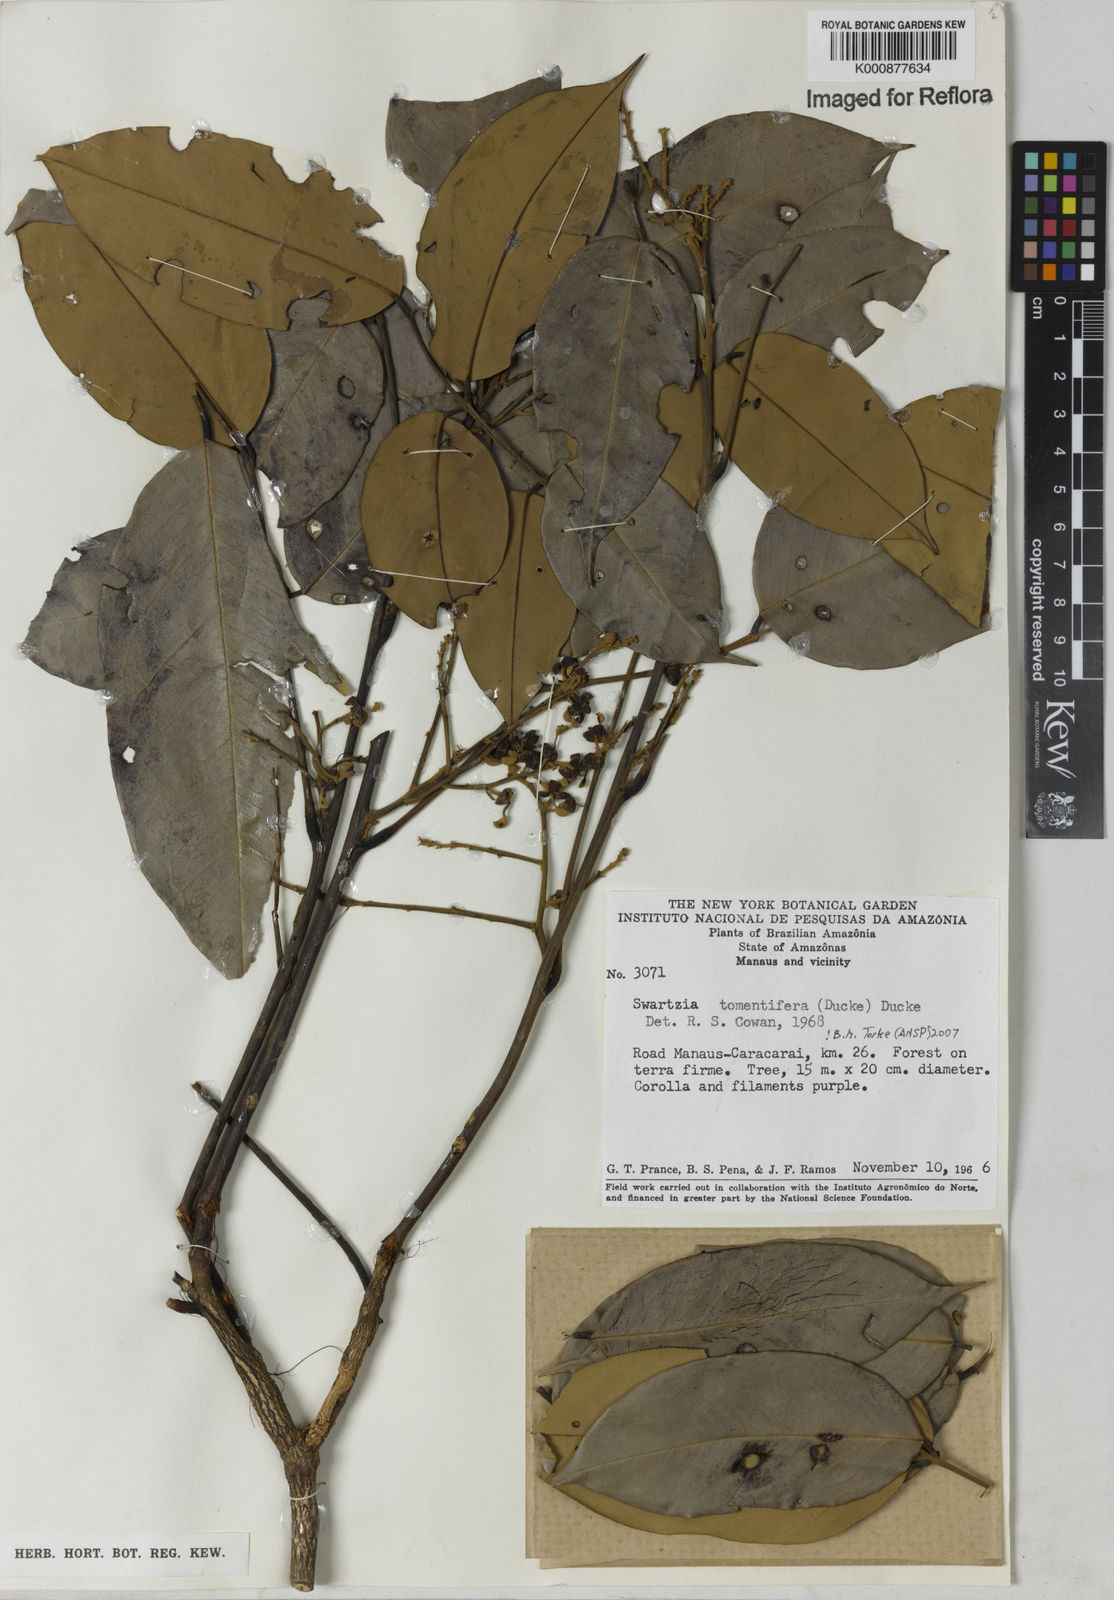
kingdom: Plantae
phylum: Tracheophyta
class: Magnoliopsida
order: Fabales
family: Fabaceae
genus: Swartzia
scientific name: Swartzia tomentifera
